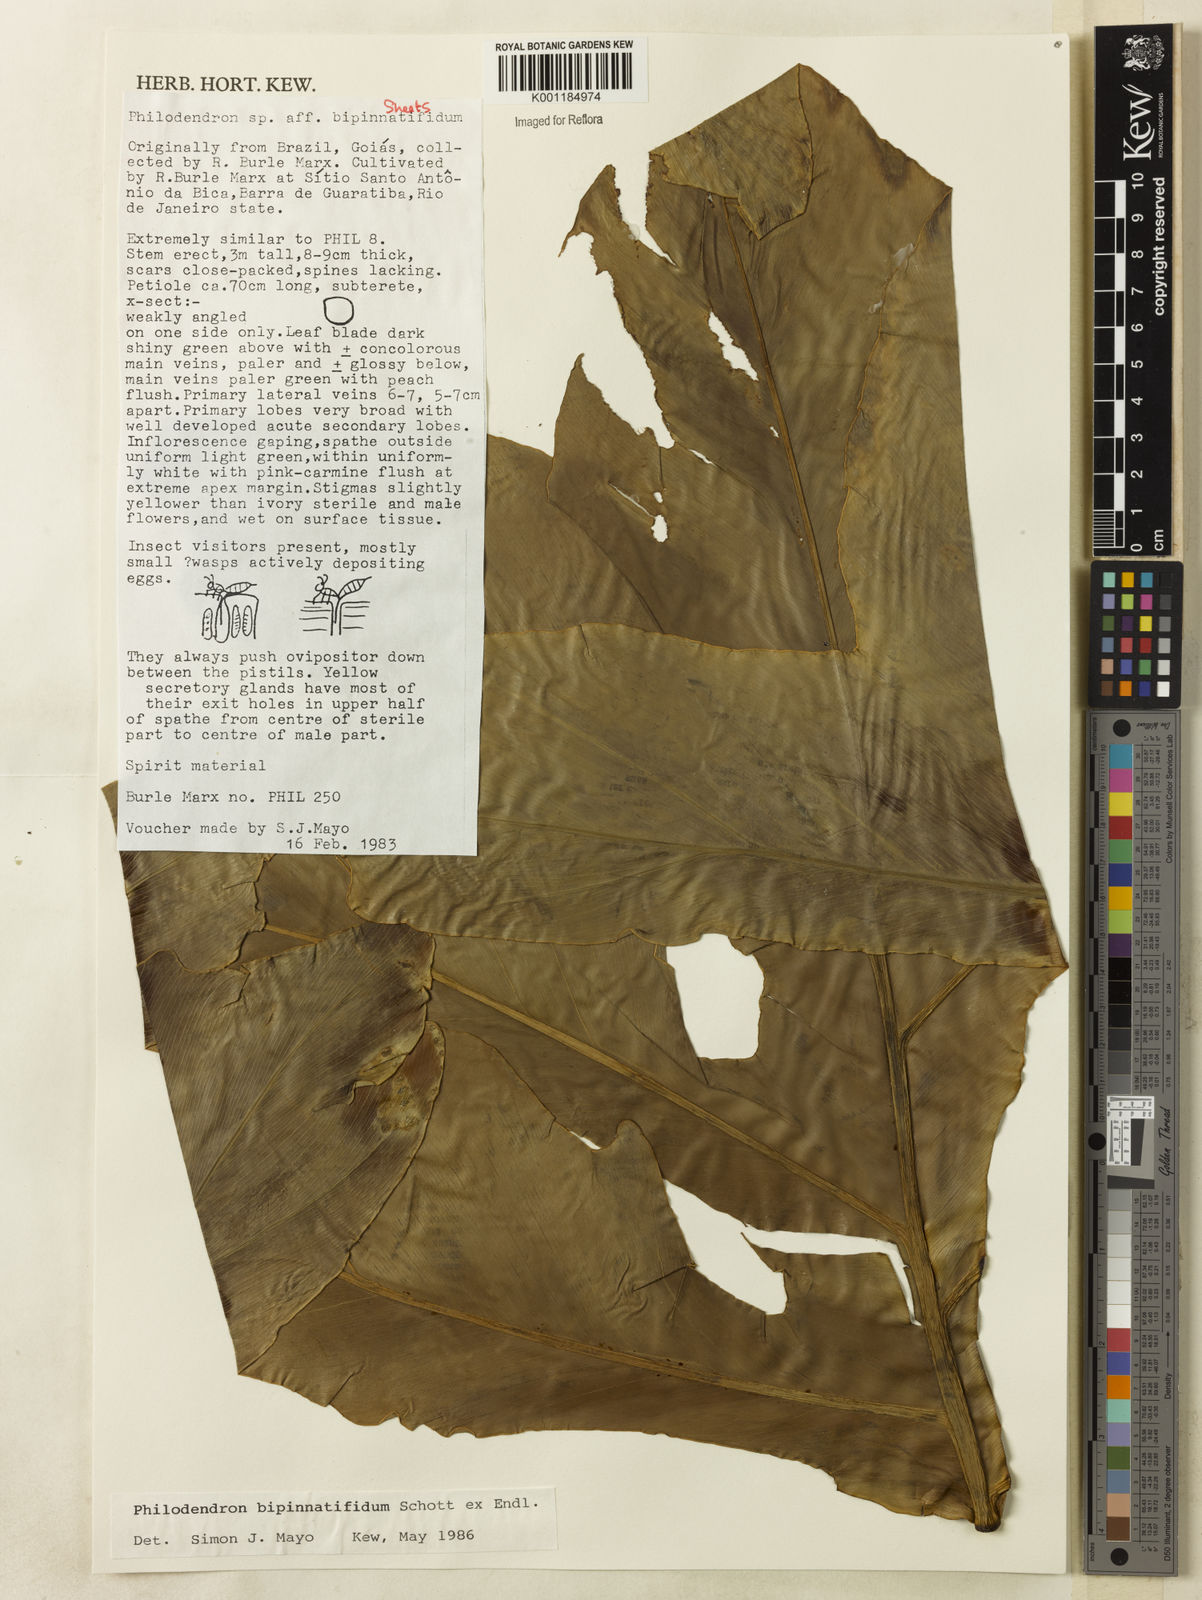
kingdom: Plantae
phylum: Tracheophyta
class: Liliopsida
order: Alismatales
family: Araceae
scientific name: Araceae
